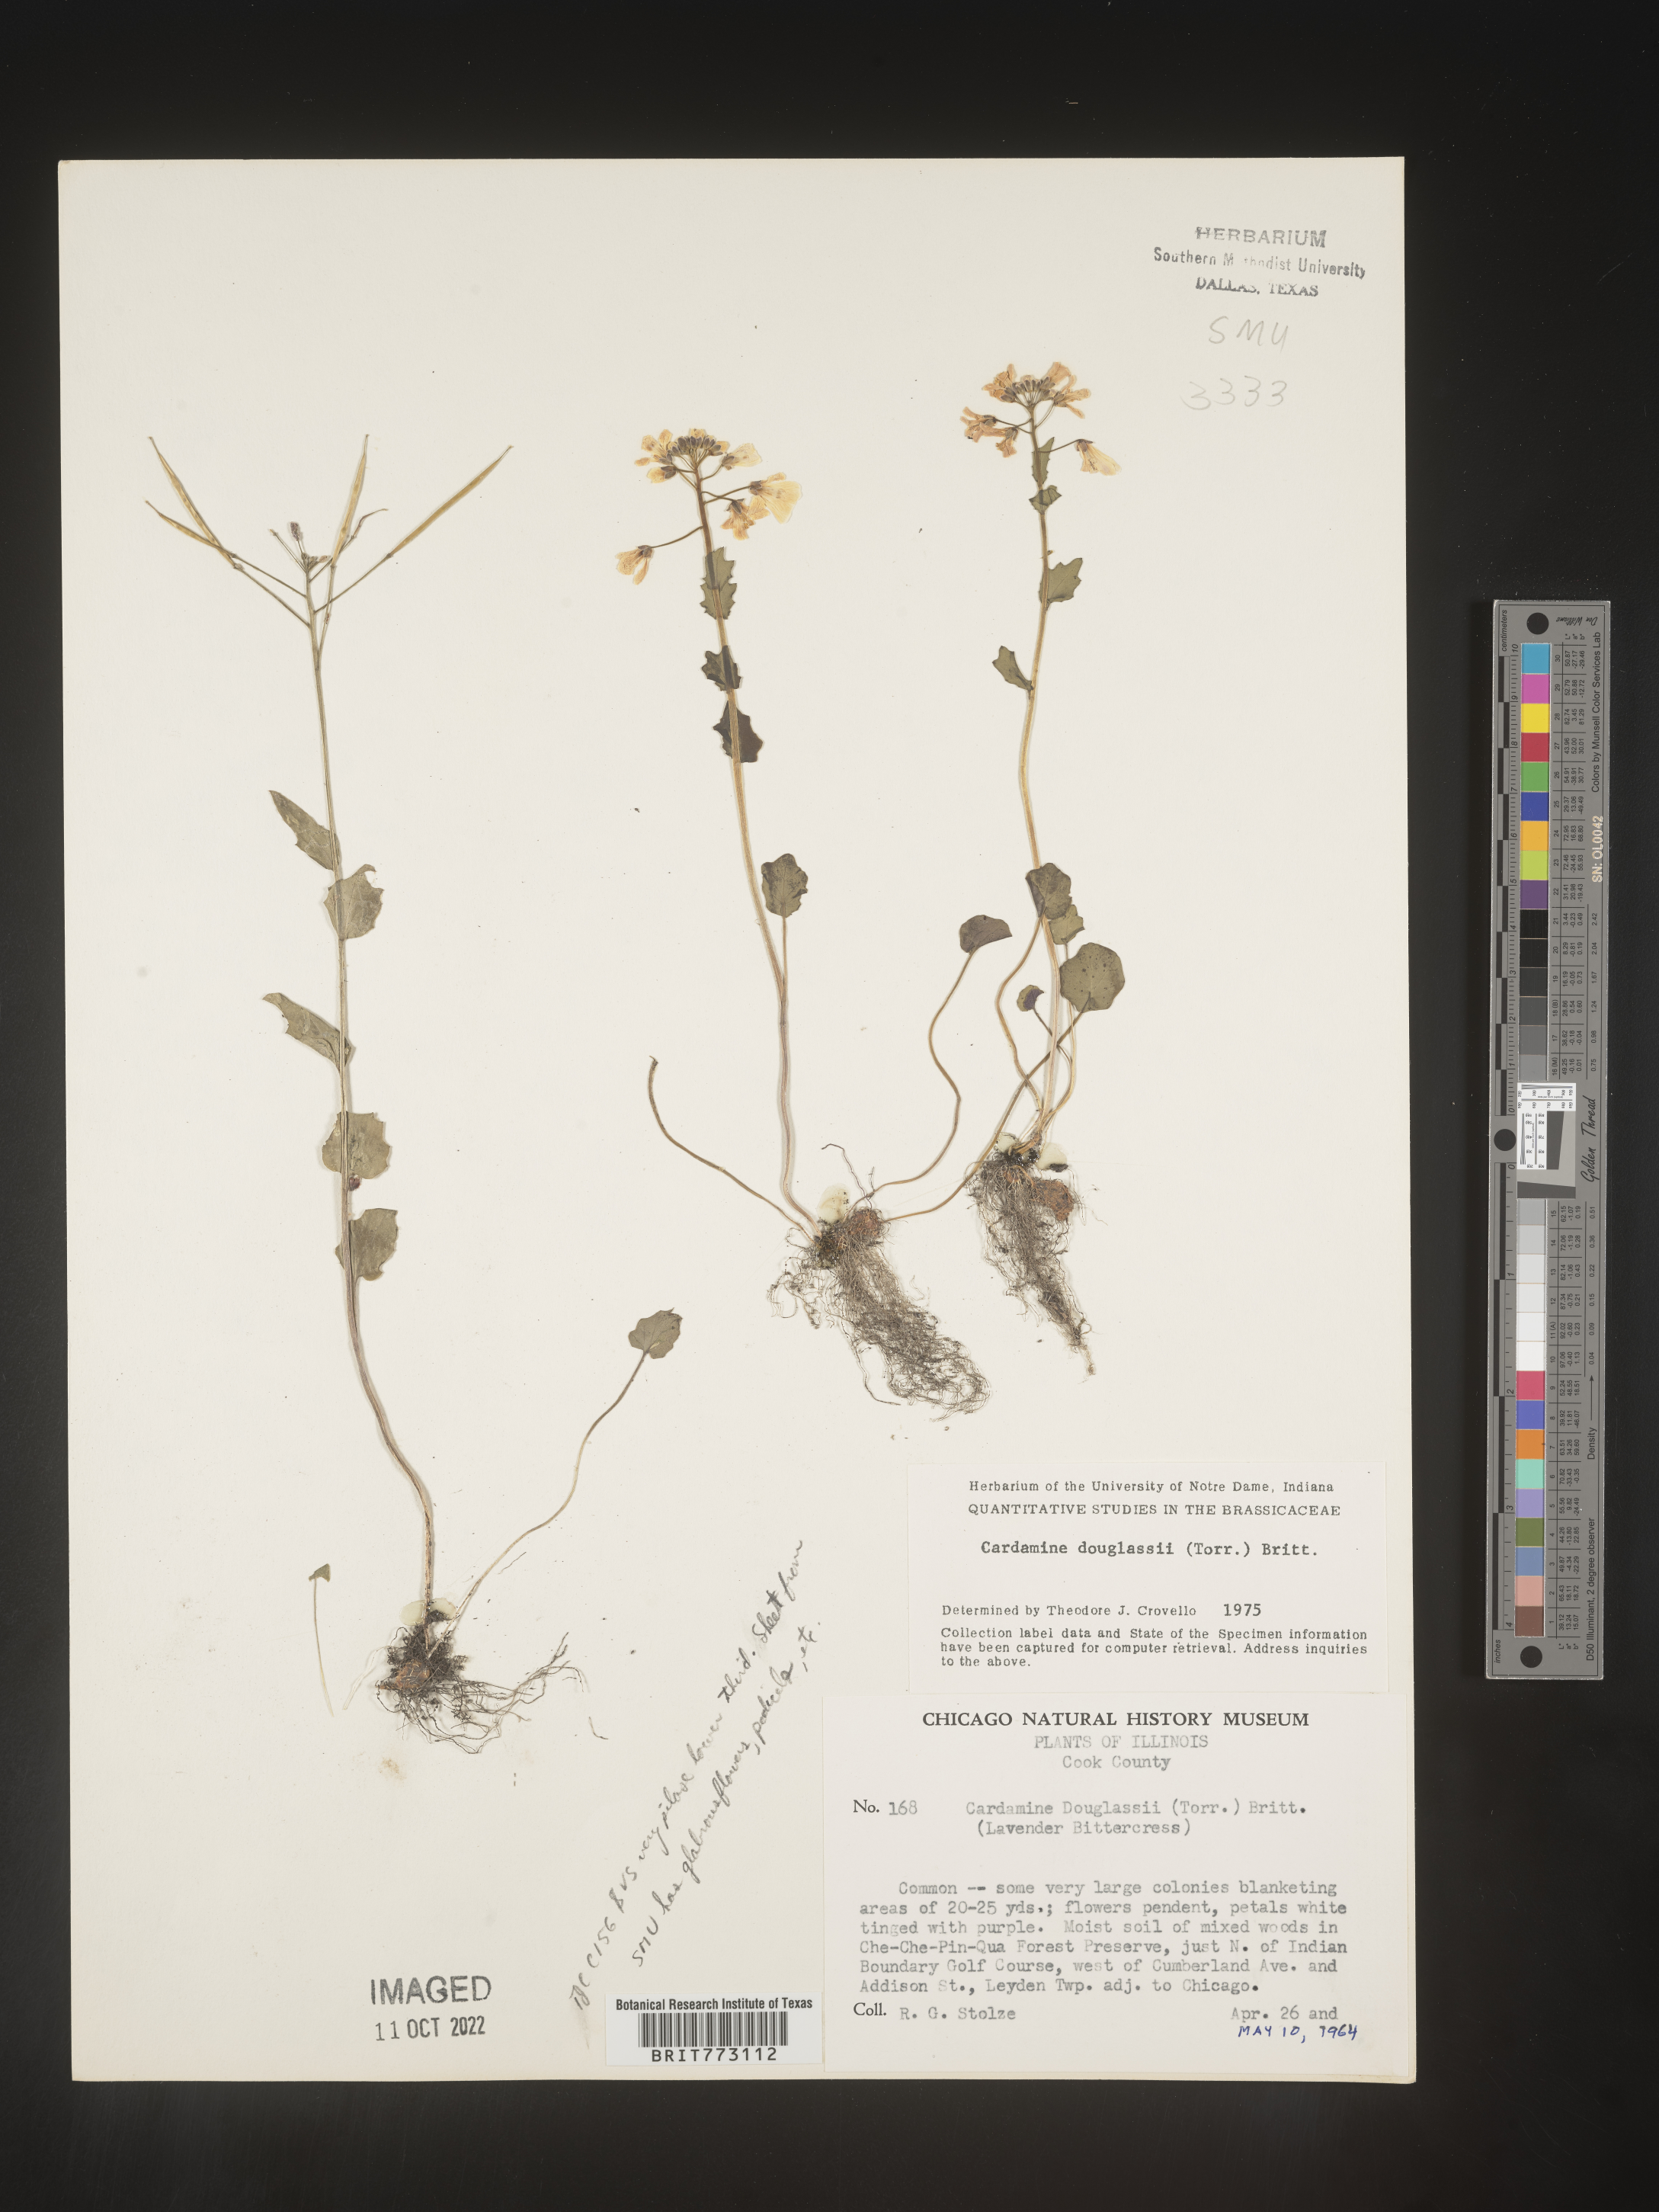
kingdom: Plantae
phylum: Tracheophyta
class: Magnoliopsida
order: Brassicales
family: Brassicaceae
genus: Cardamine
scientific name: Cardamine
